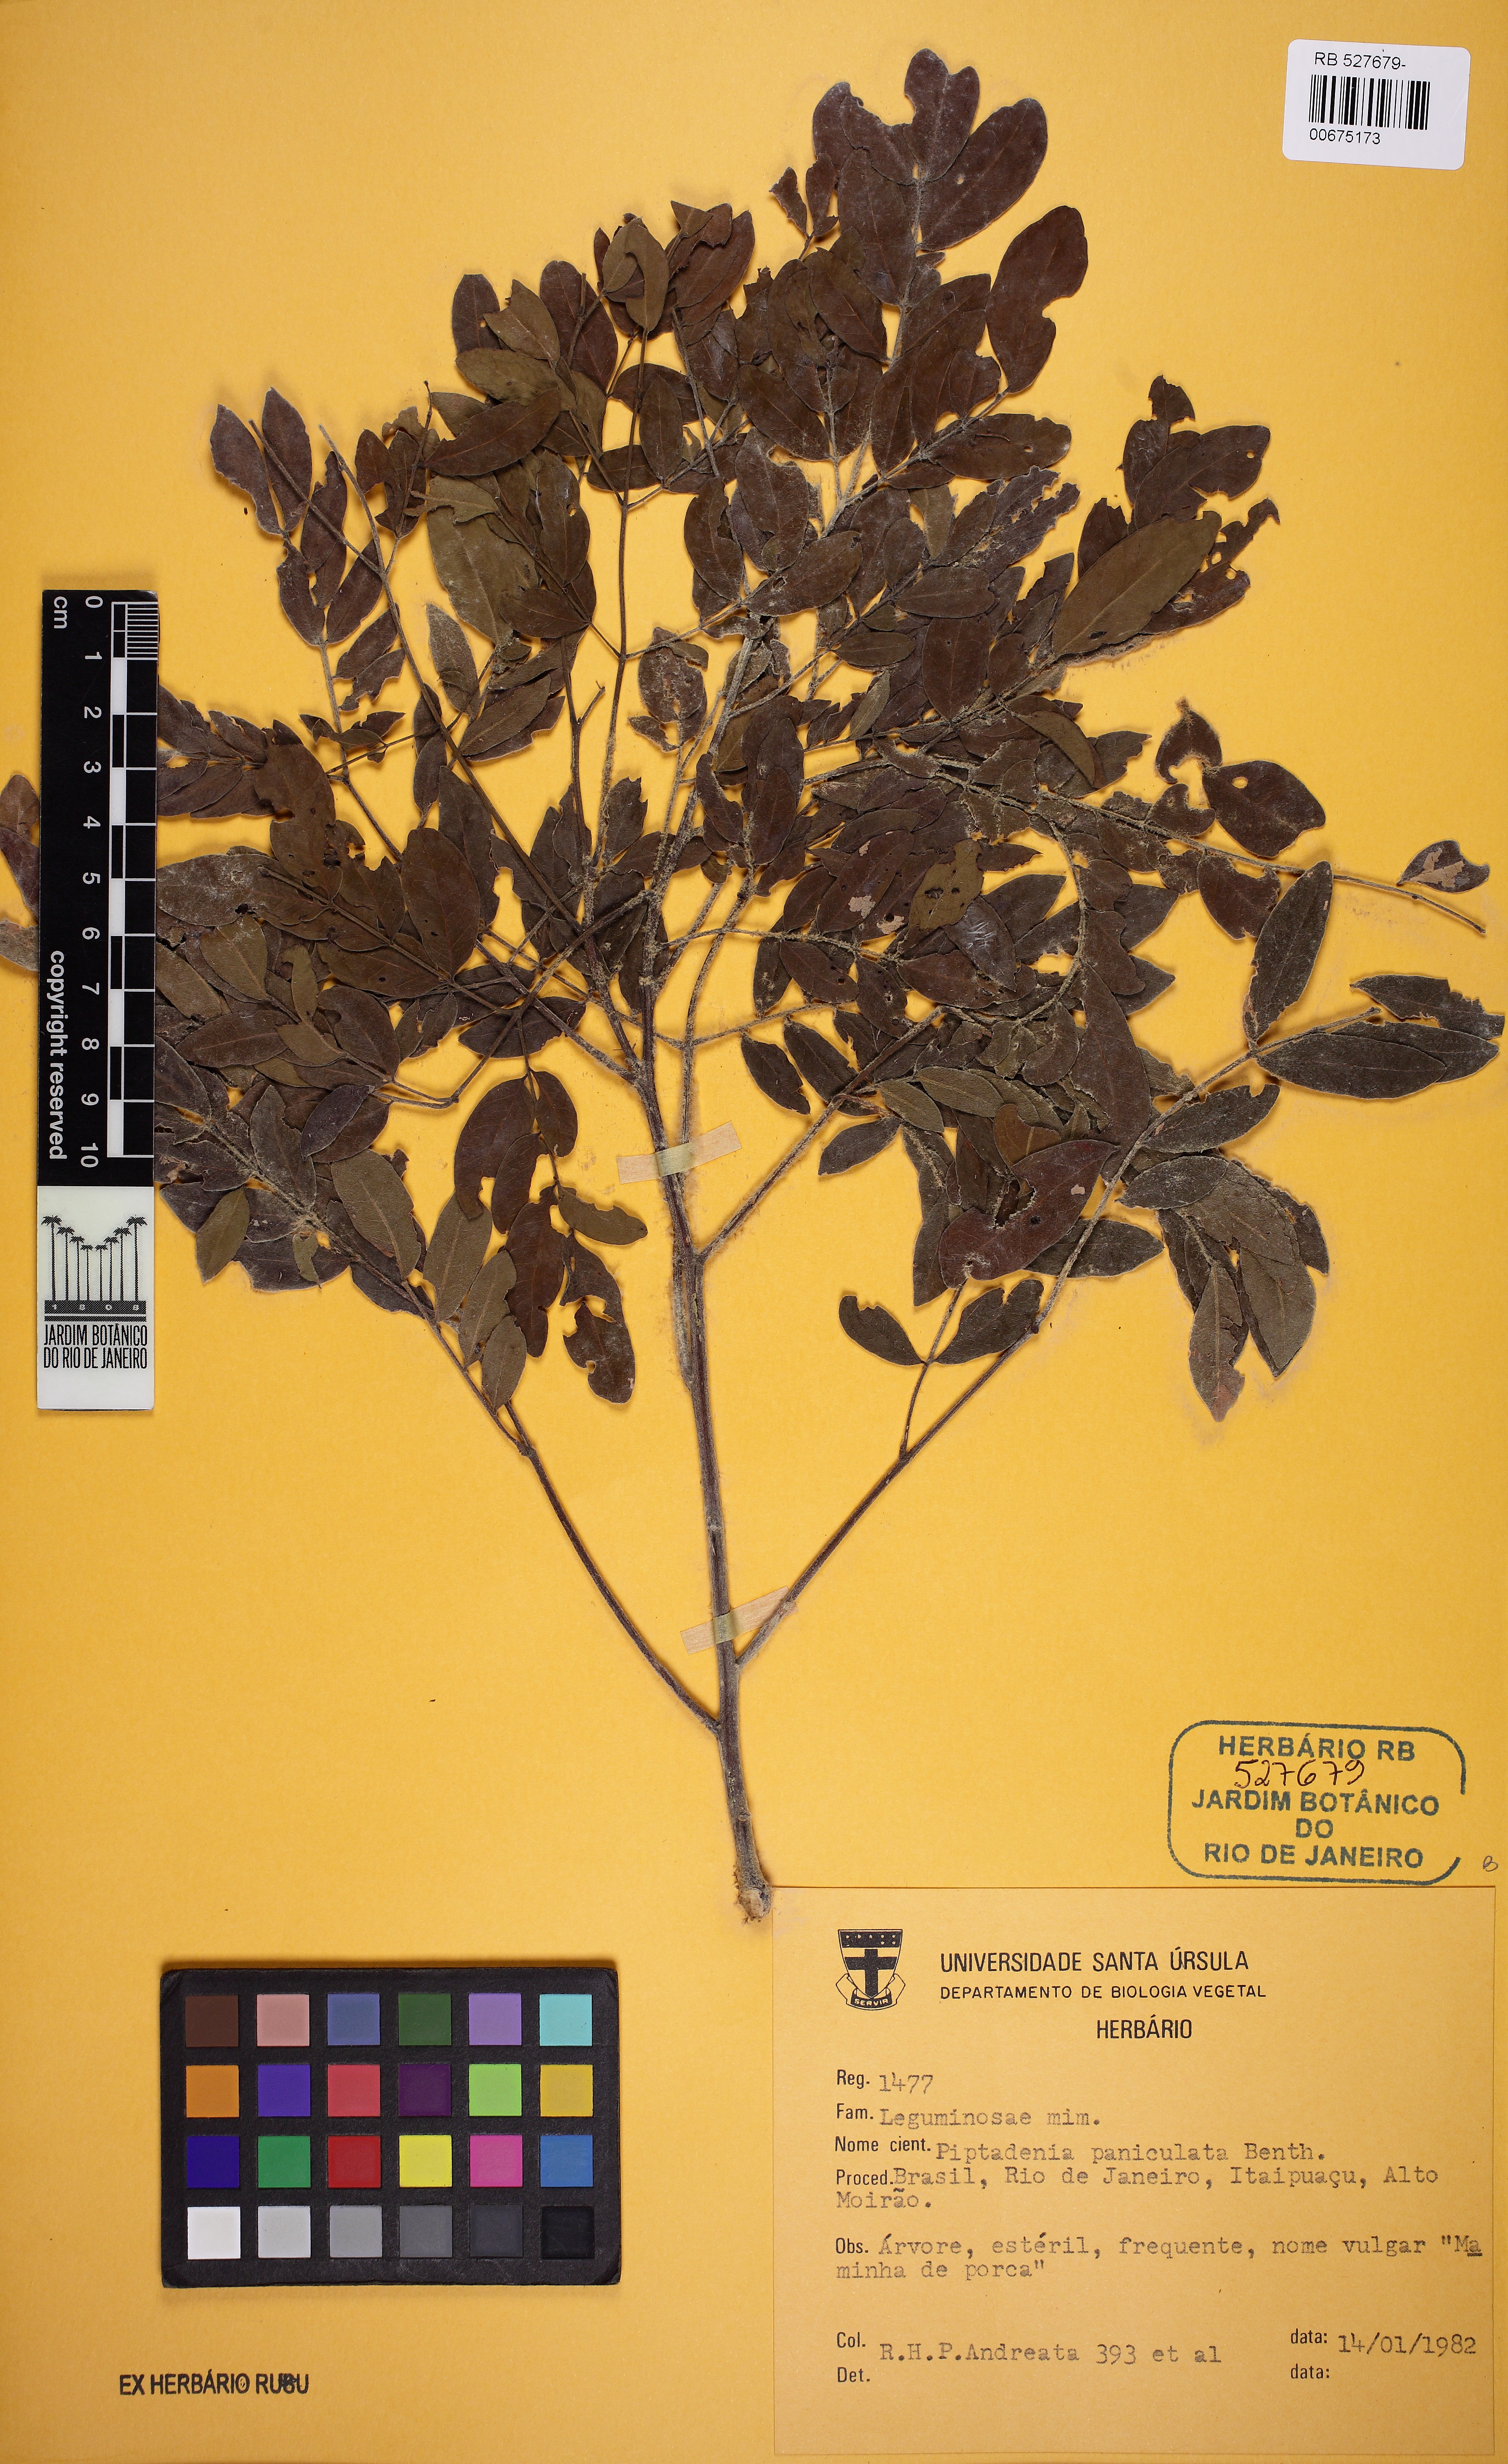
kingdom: Plantae
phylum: Tracheophyta
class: Magnoliopsida
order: Fabales
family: Fabaceae
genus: Piptadenia
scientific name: Piptadenia paniculata
